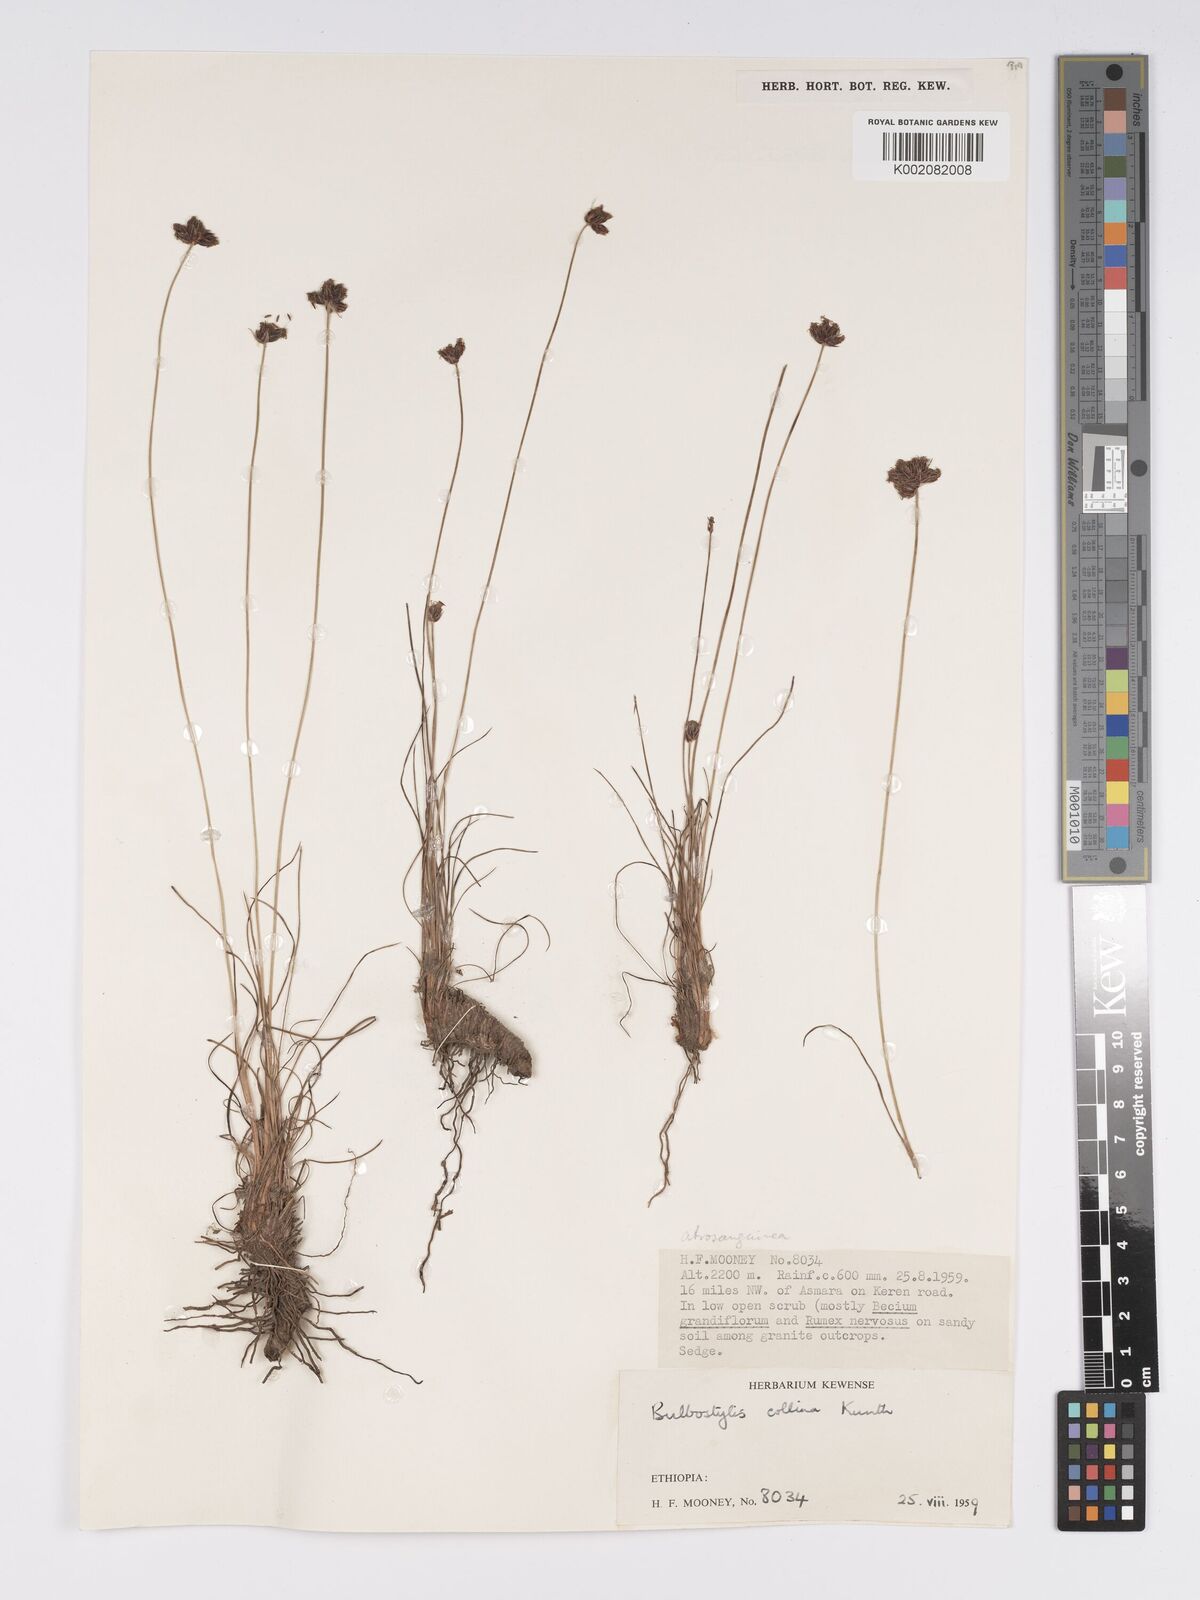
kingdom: Plantae
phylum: Tracheophyta
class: Liliopsida
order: Poales
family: Cyperaceae
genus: Bulbostylis
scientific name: Bulbostylis
